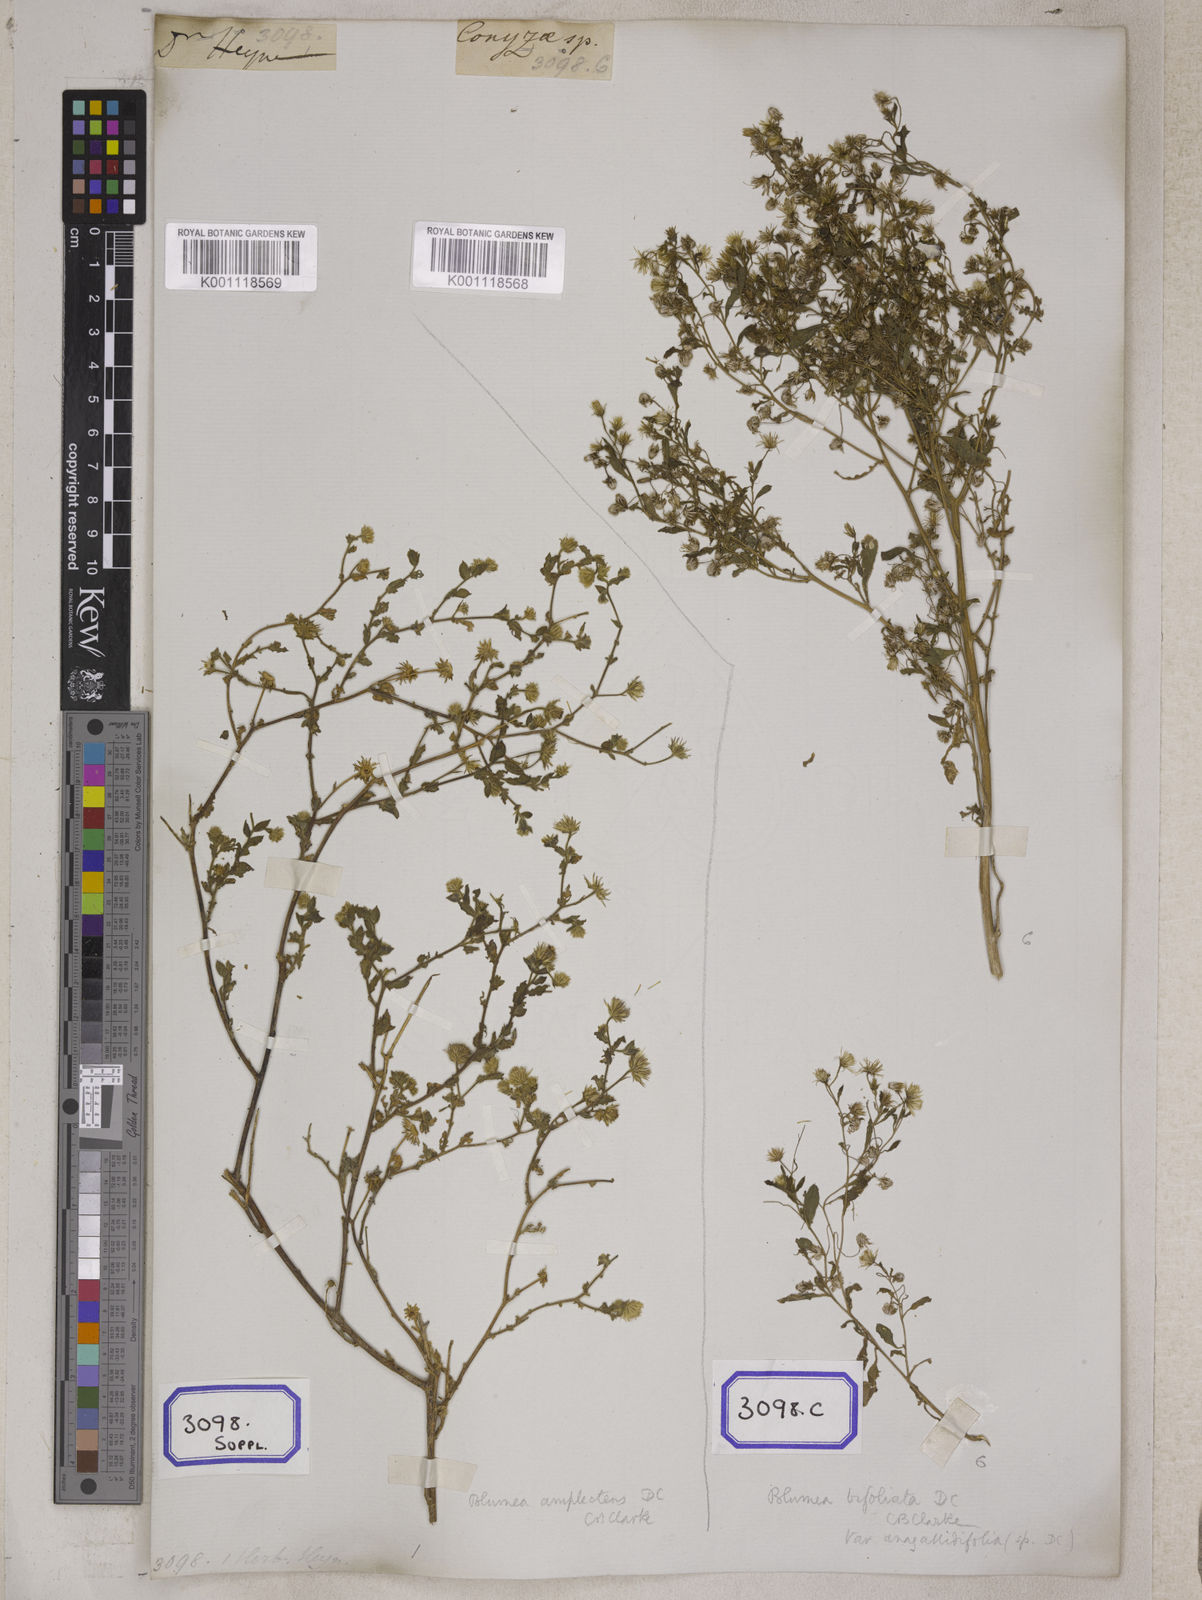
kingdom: Plantae
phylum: Tracheophyta
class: Magnoliopsida
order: Asterales
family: Asteraceae
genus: Blumea
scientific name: Blumea tenella
